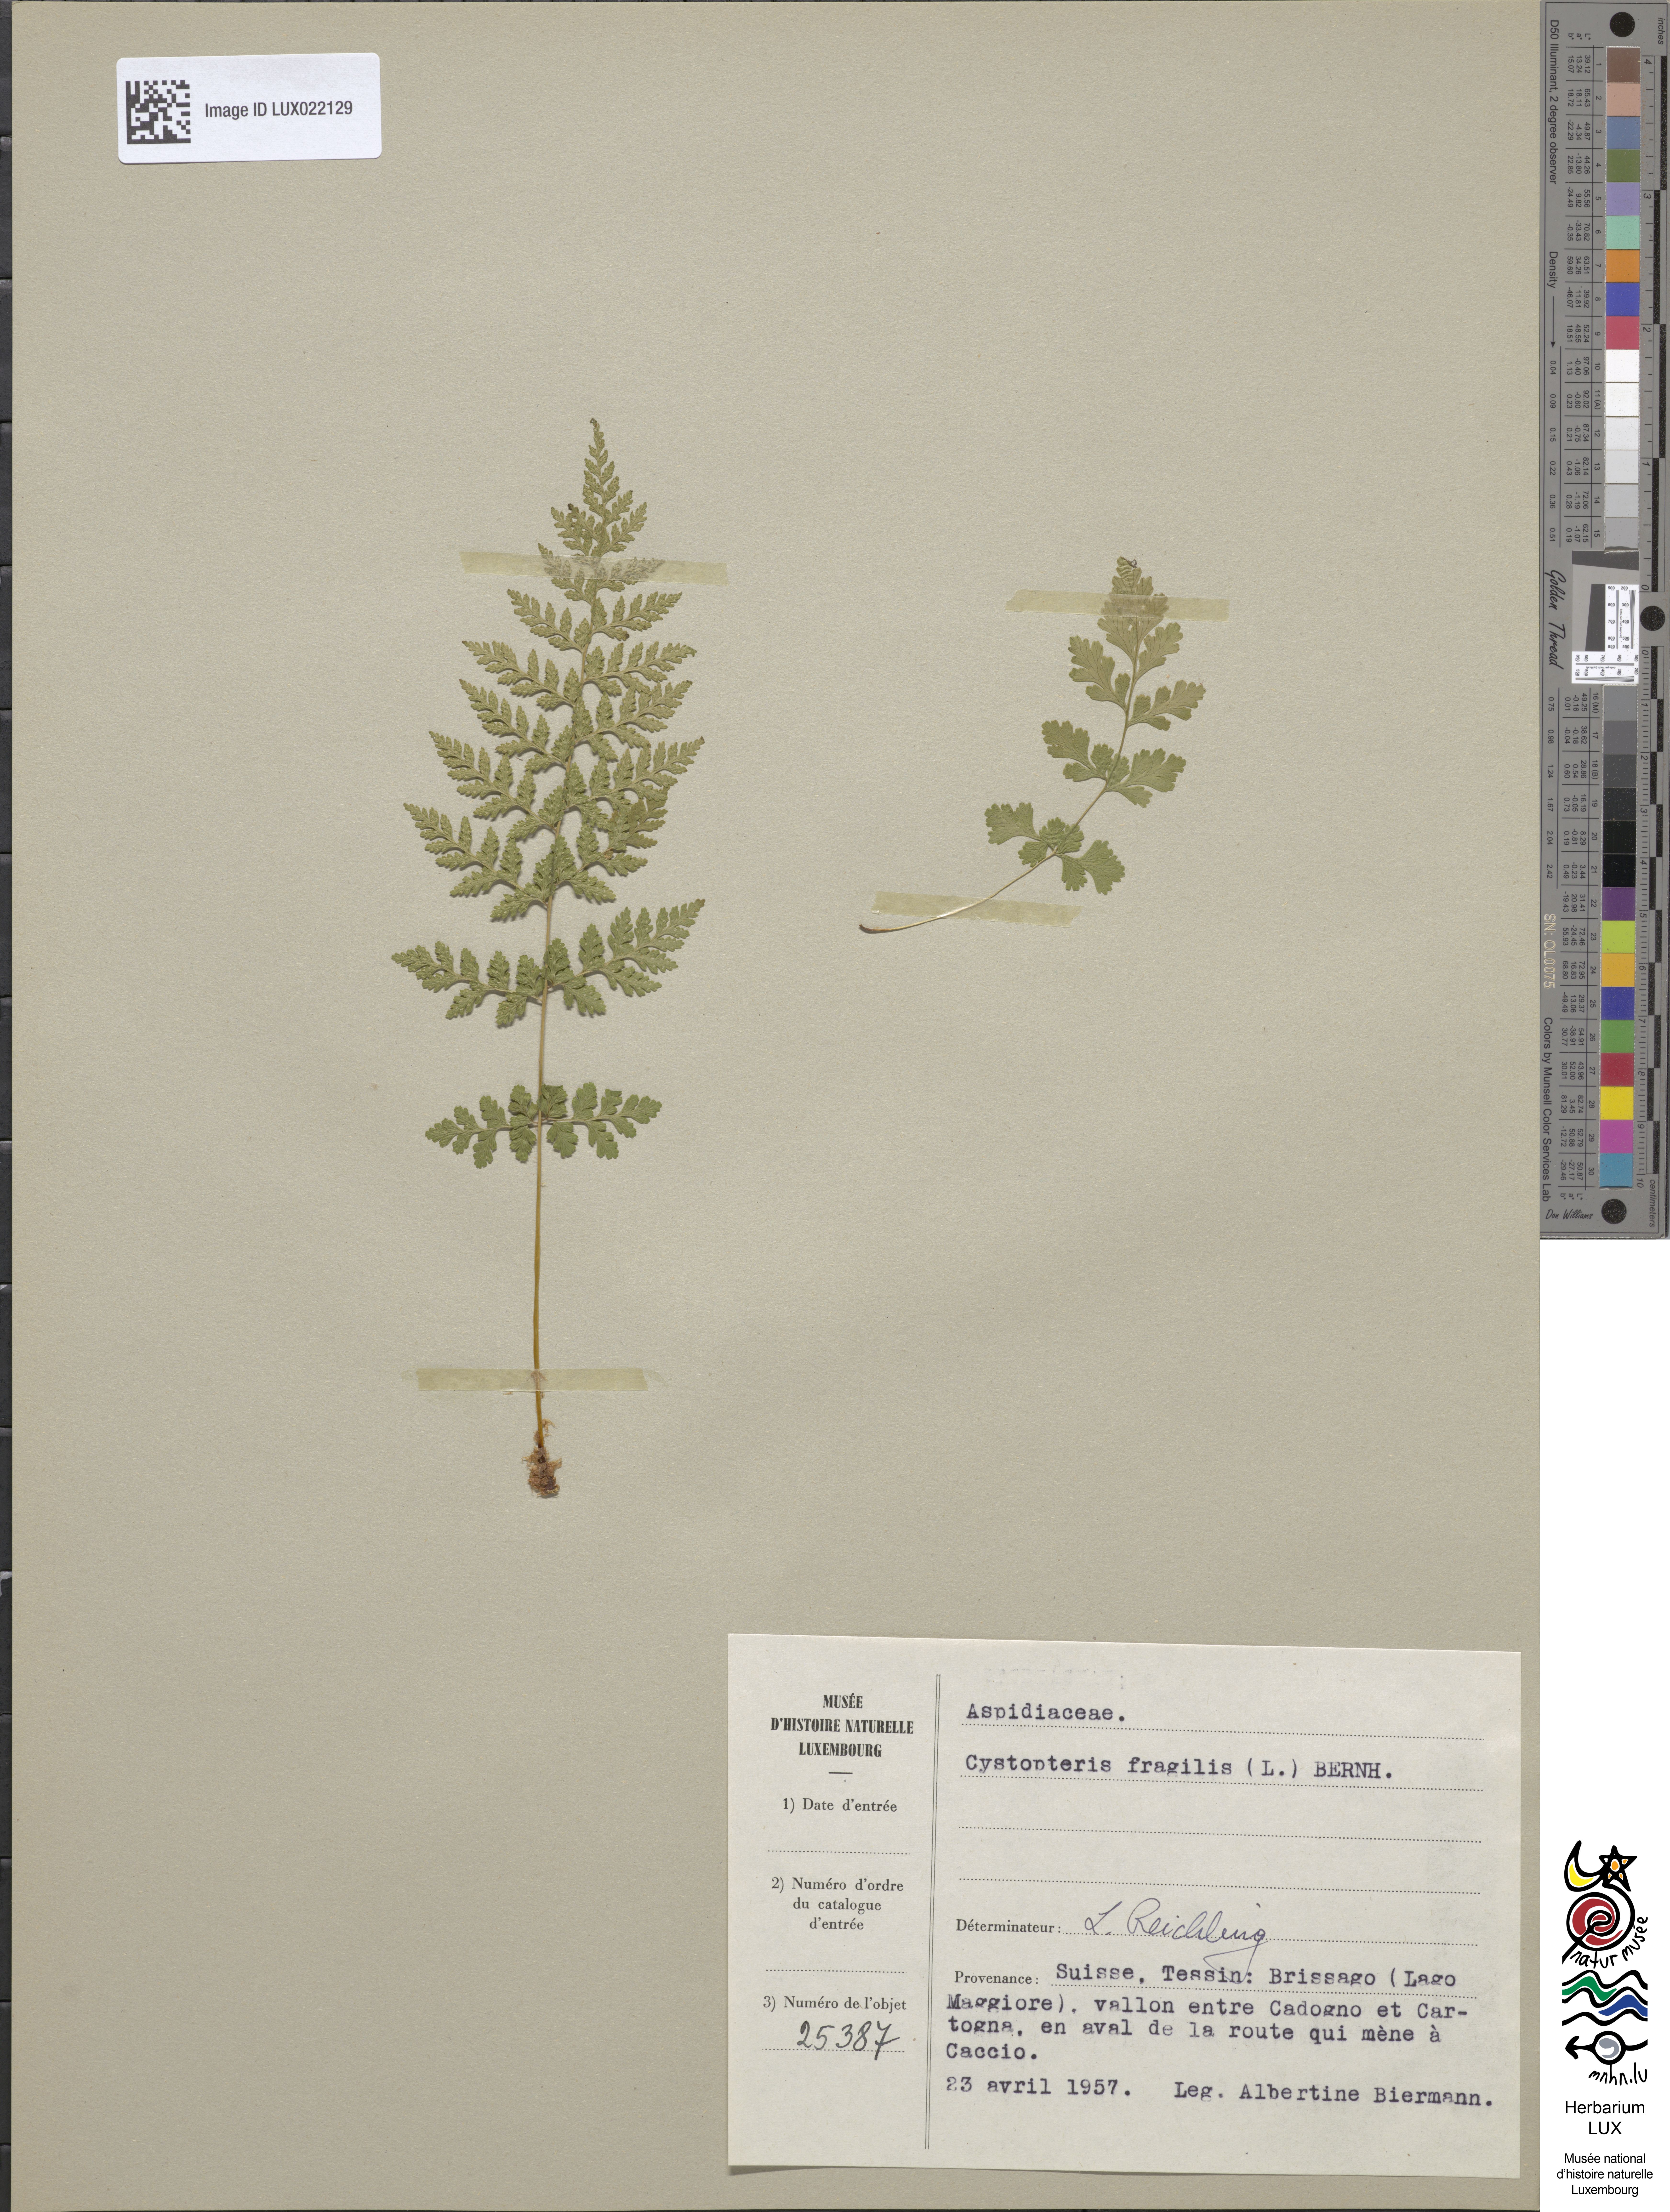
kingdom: Plantae
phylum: Tracheophyta
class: Polypodiopsida
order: Polypodiales
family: Cystopteridaceae
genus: Cystopteris
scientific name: Cystopteris fragilis
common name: Brittle bladder fern
